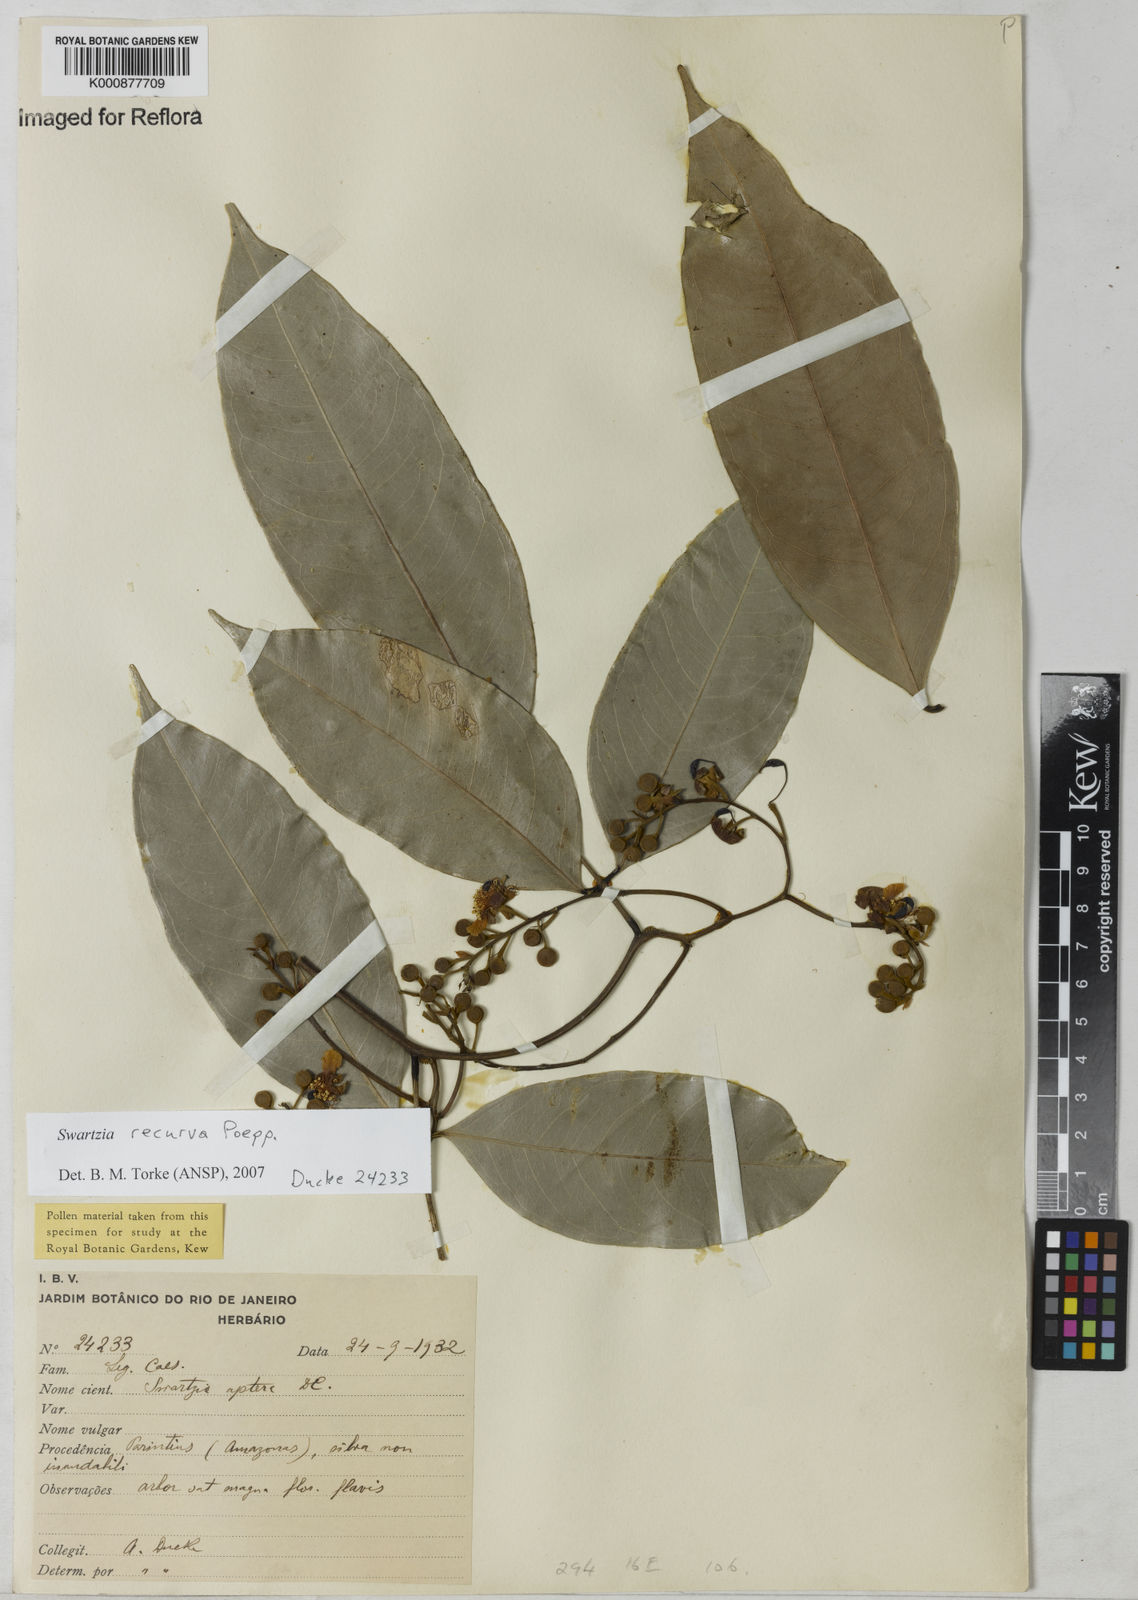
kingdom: Plantae
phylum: Tracheophyta
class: Magnoliopsida
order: Fabales
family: Fabaceae
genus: Swartzia
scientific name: Swartzia recurva
